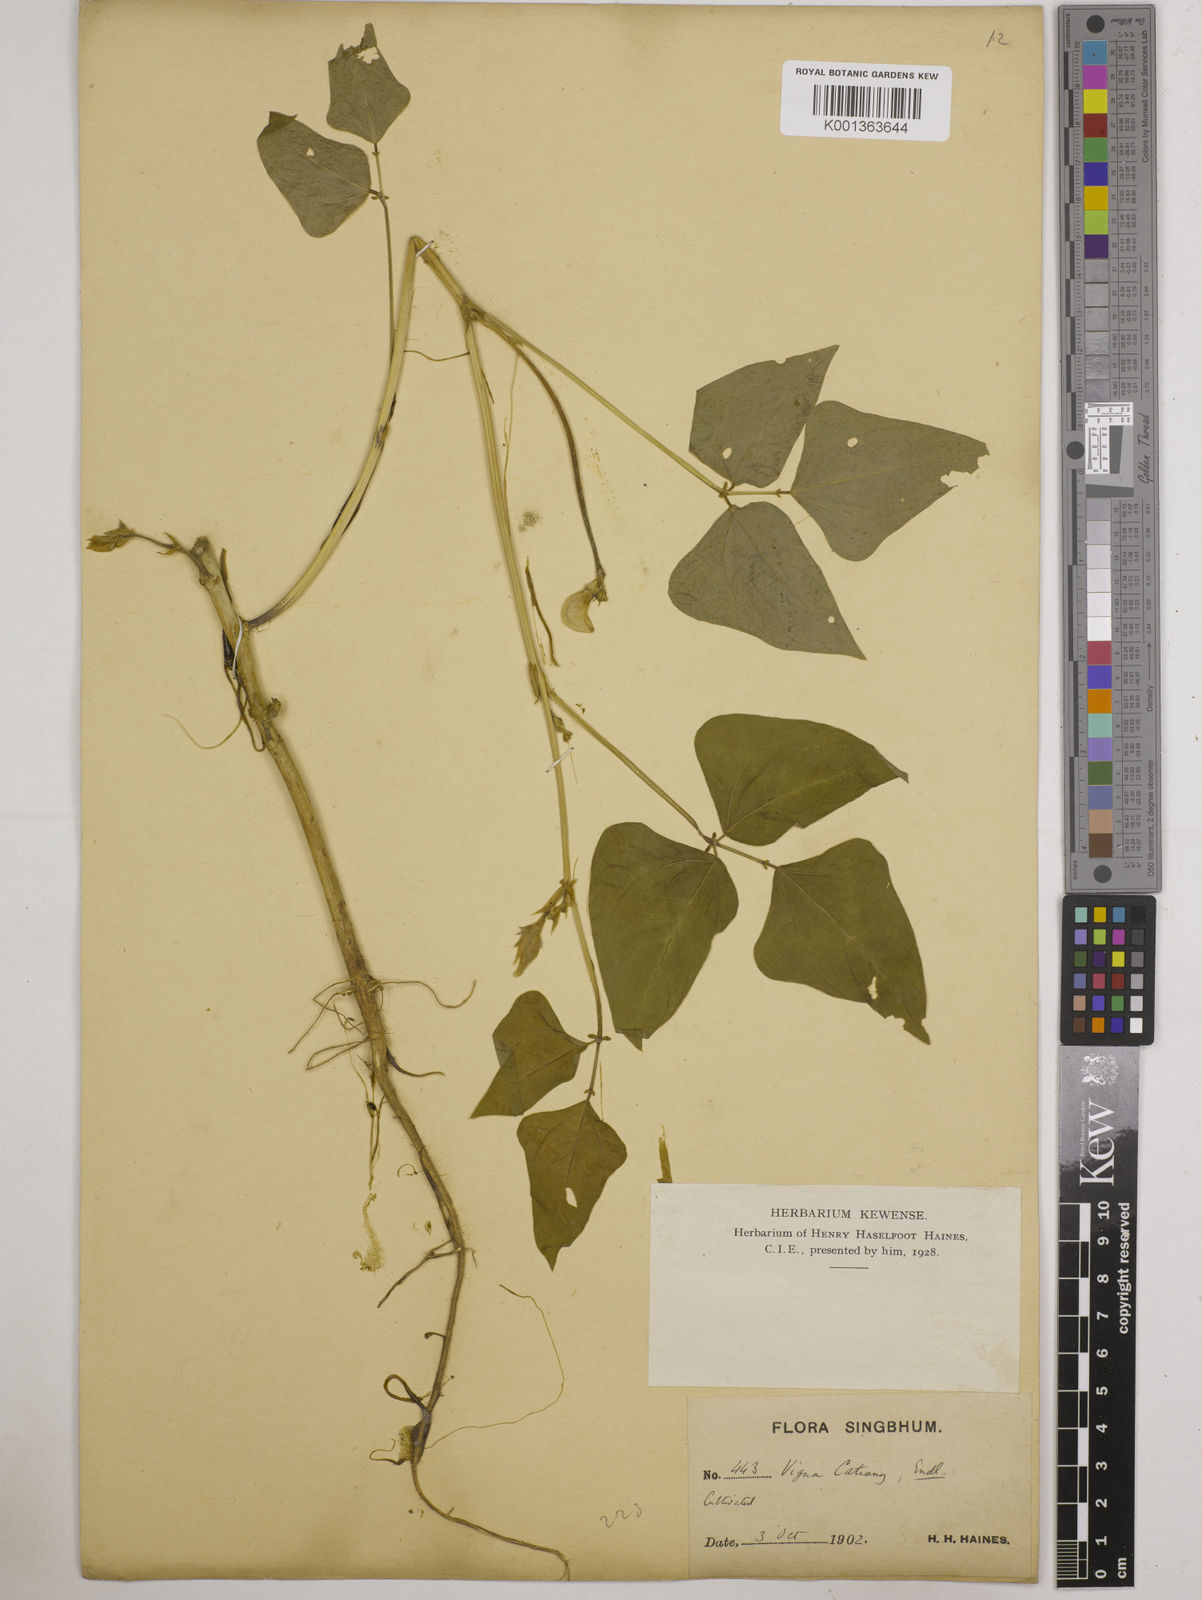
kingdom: Plantae
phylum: Tracheophyta
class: Magnoliopsida
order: Fabales
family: Fabaceae
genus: Vigna
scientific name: Vigna unguiculata
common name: Cowpea
